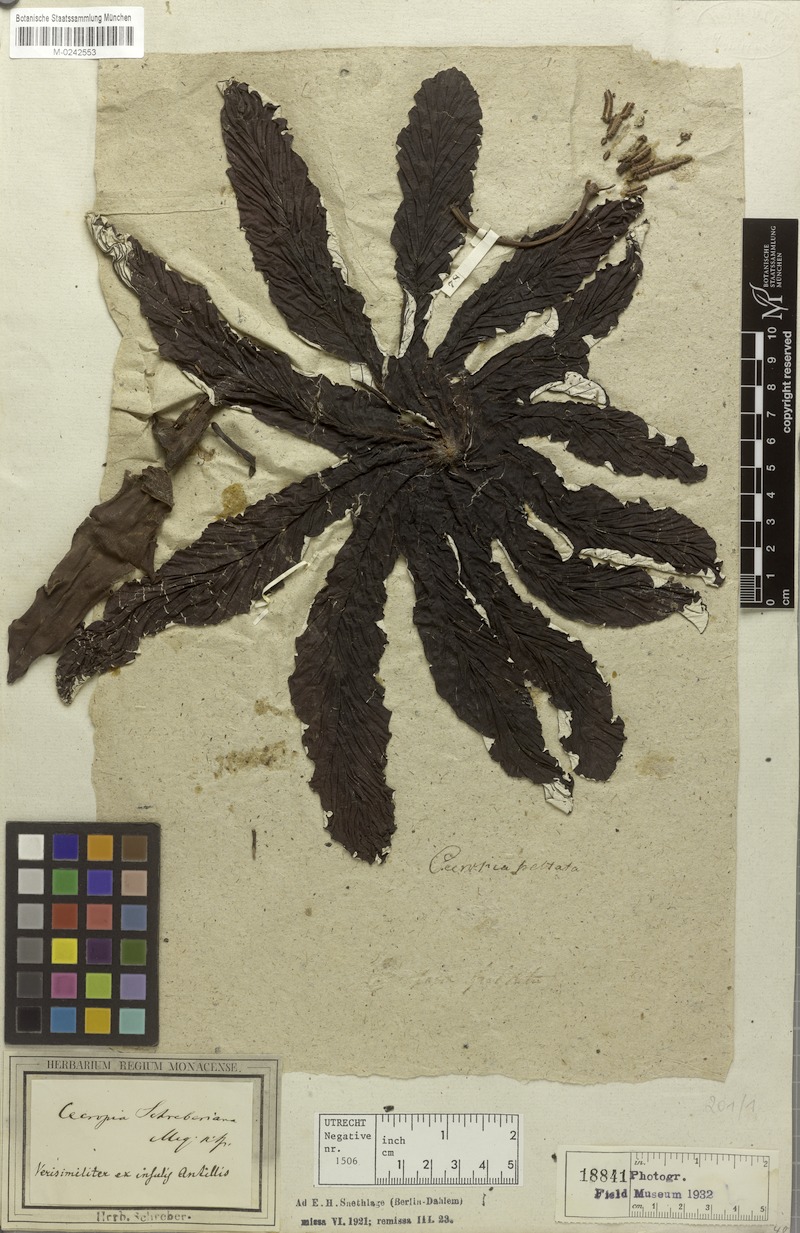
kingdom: Plantae
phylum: Tracheophyta
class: Magnoliopsida
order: Rosales
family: Urticaceae
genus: Cecropia
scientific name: Cecropia schreberiana
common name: Trumpet tree
